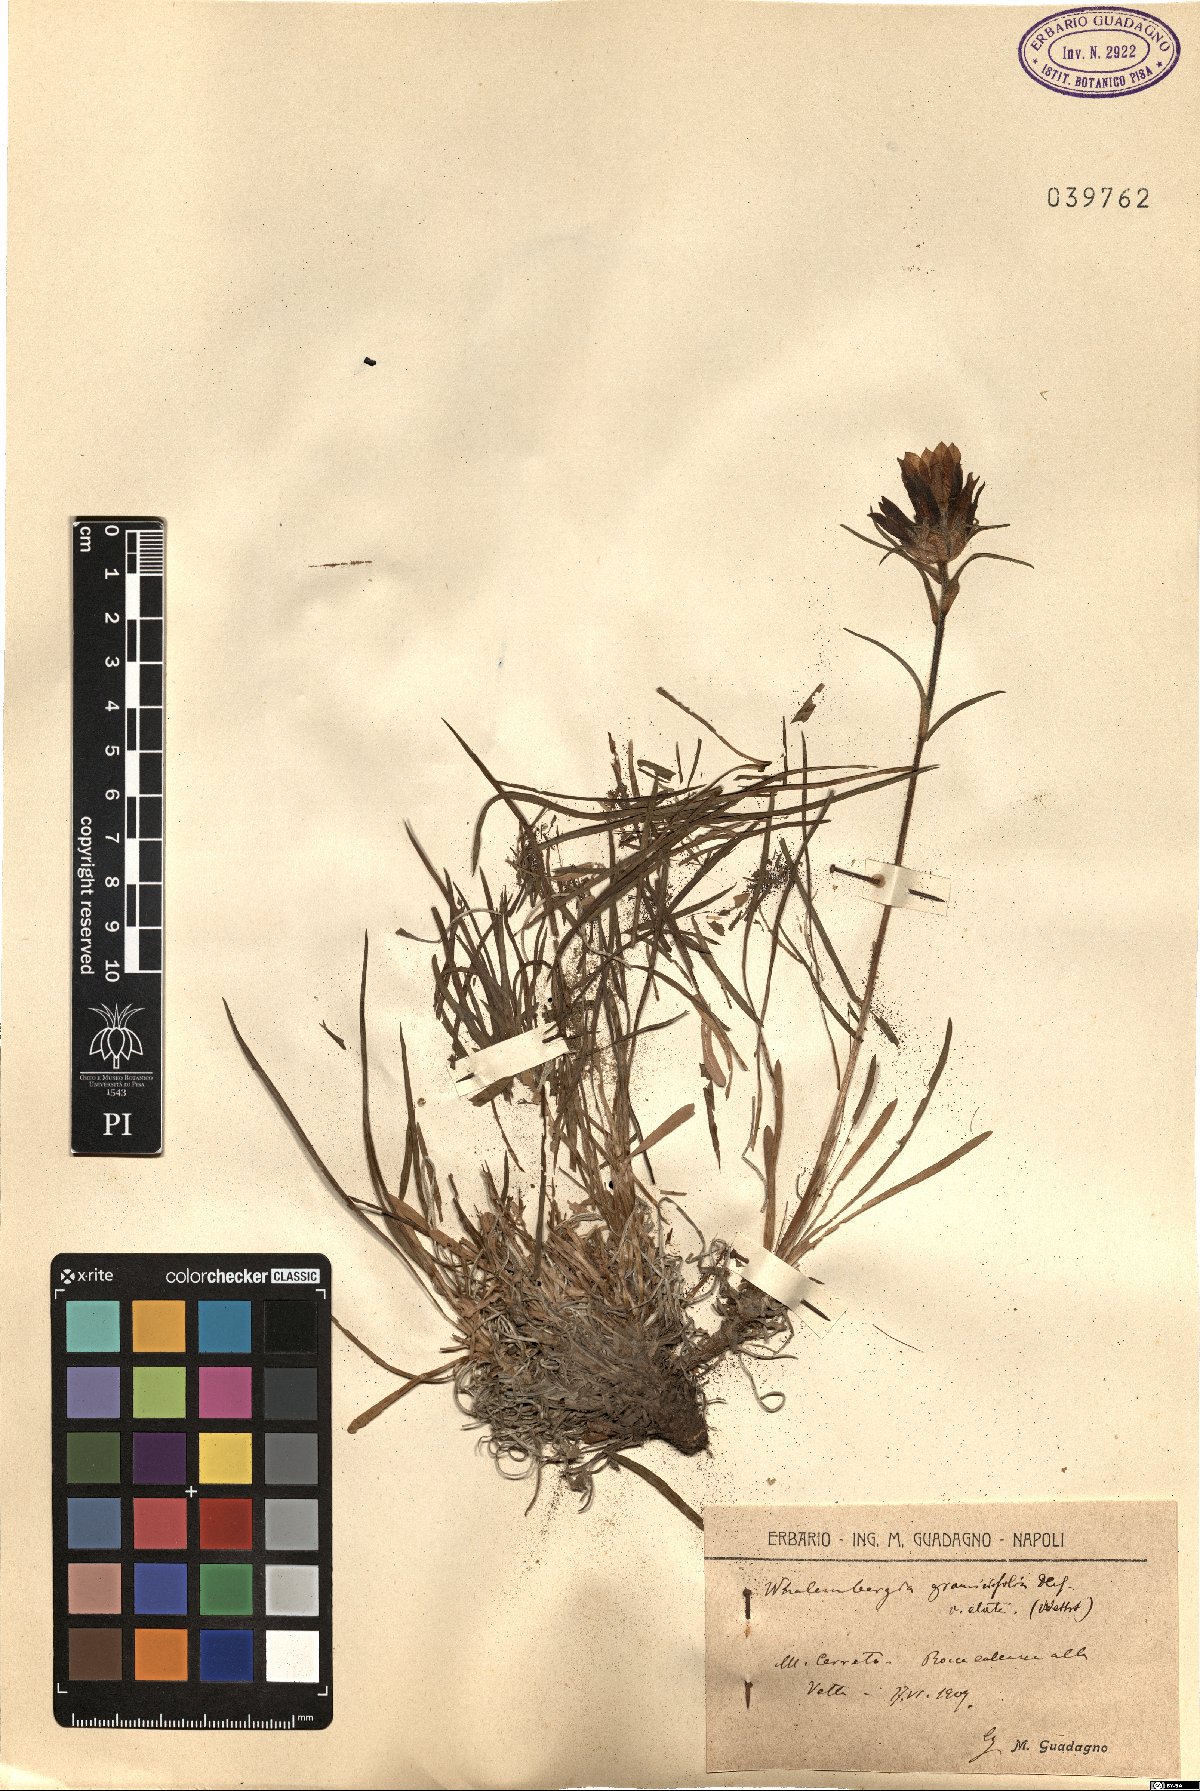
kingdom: Plantae
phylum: Tracheophyta
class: Magnoliopsida
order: Asterales
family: Campanulaceae
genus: Edraianthus
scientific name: Edraianthus graminifolius
